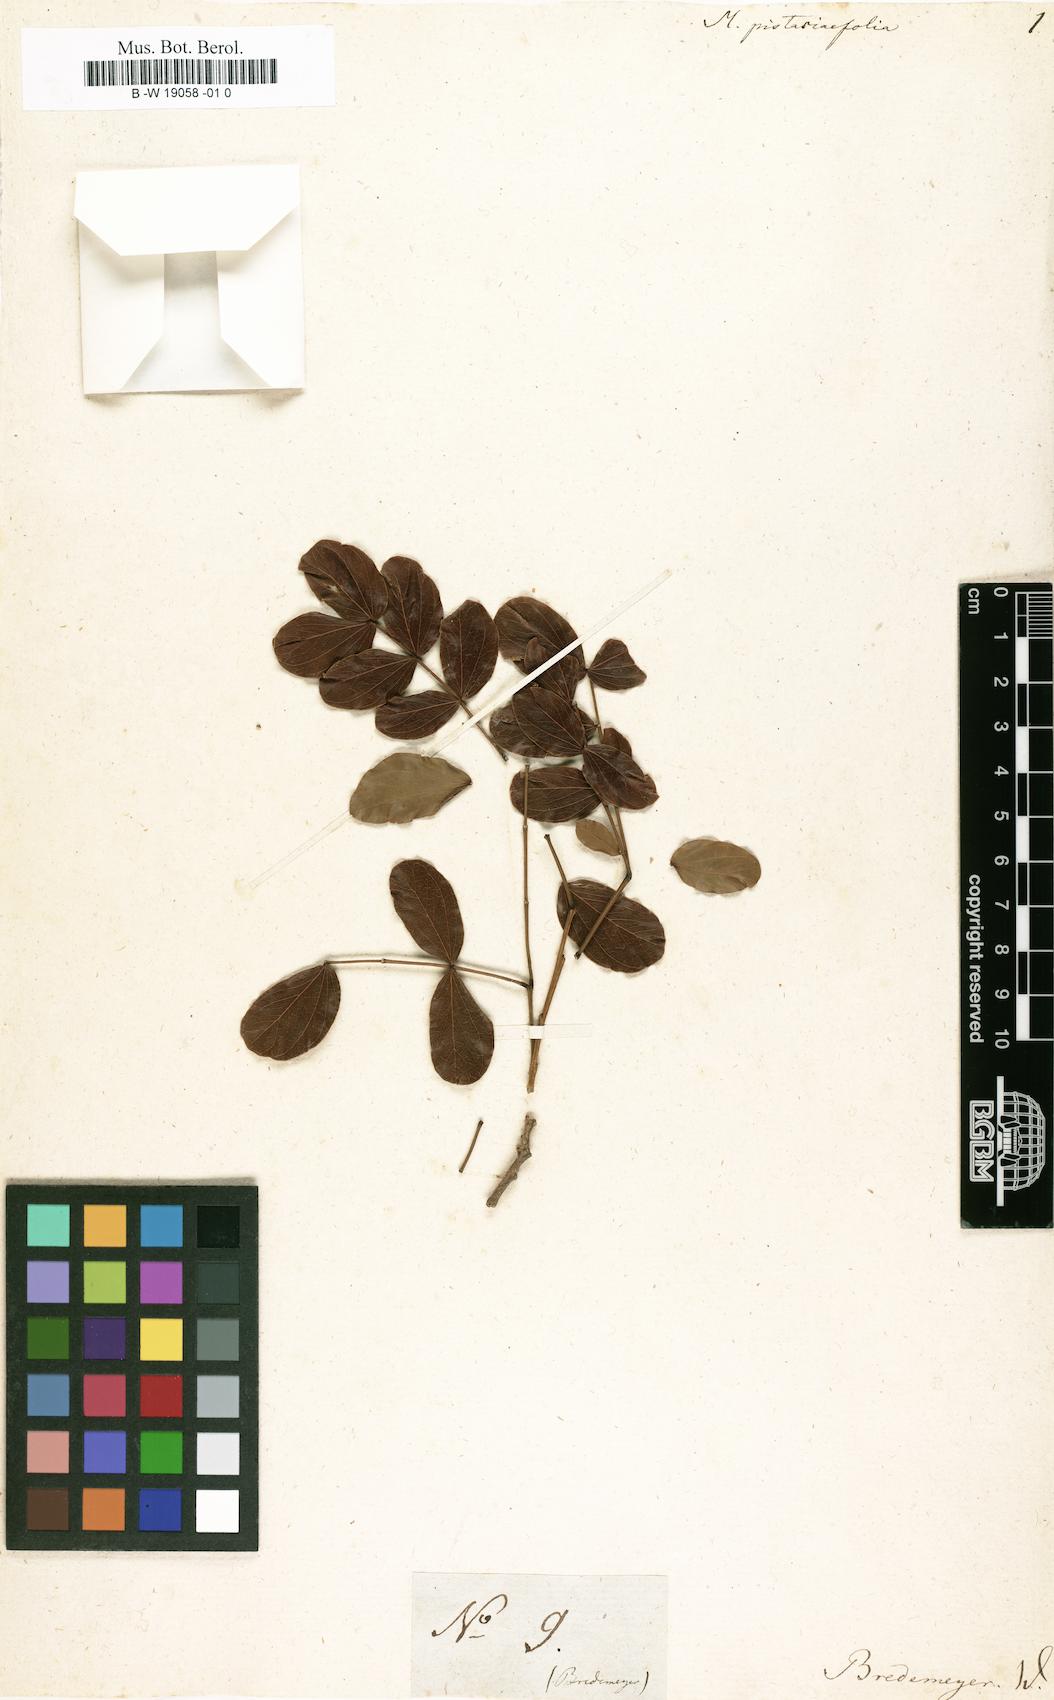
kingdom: Plantae
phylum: Tracheophyta
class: Magnoliopsida
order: Fabales
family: Fabaceae
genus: Albizia
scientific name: Albizia pistaciifolia
